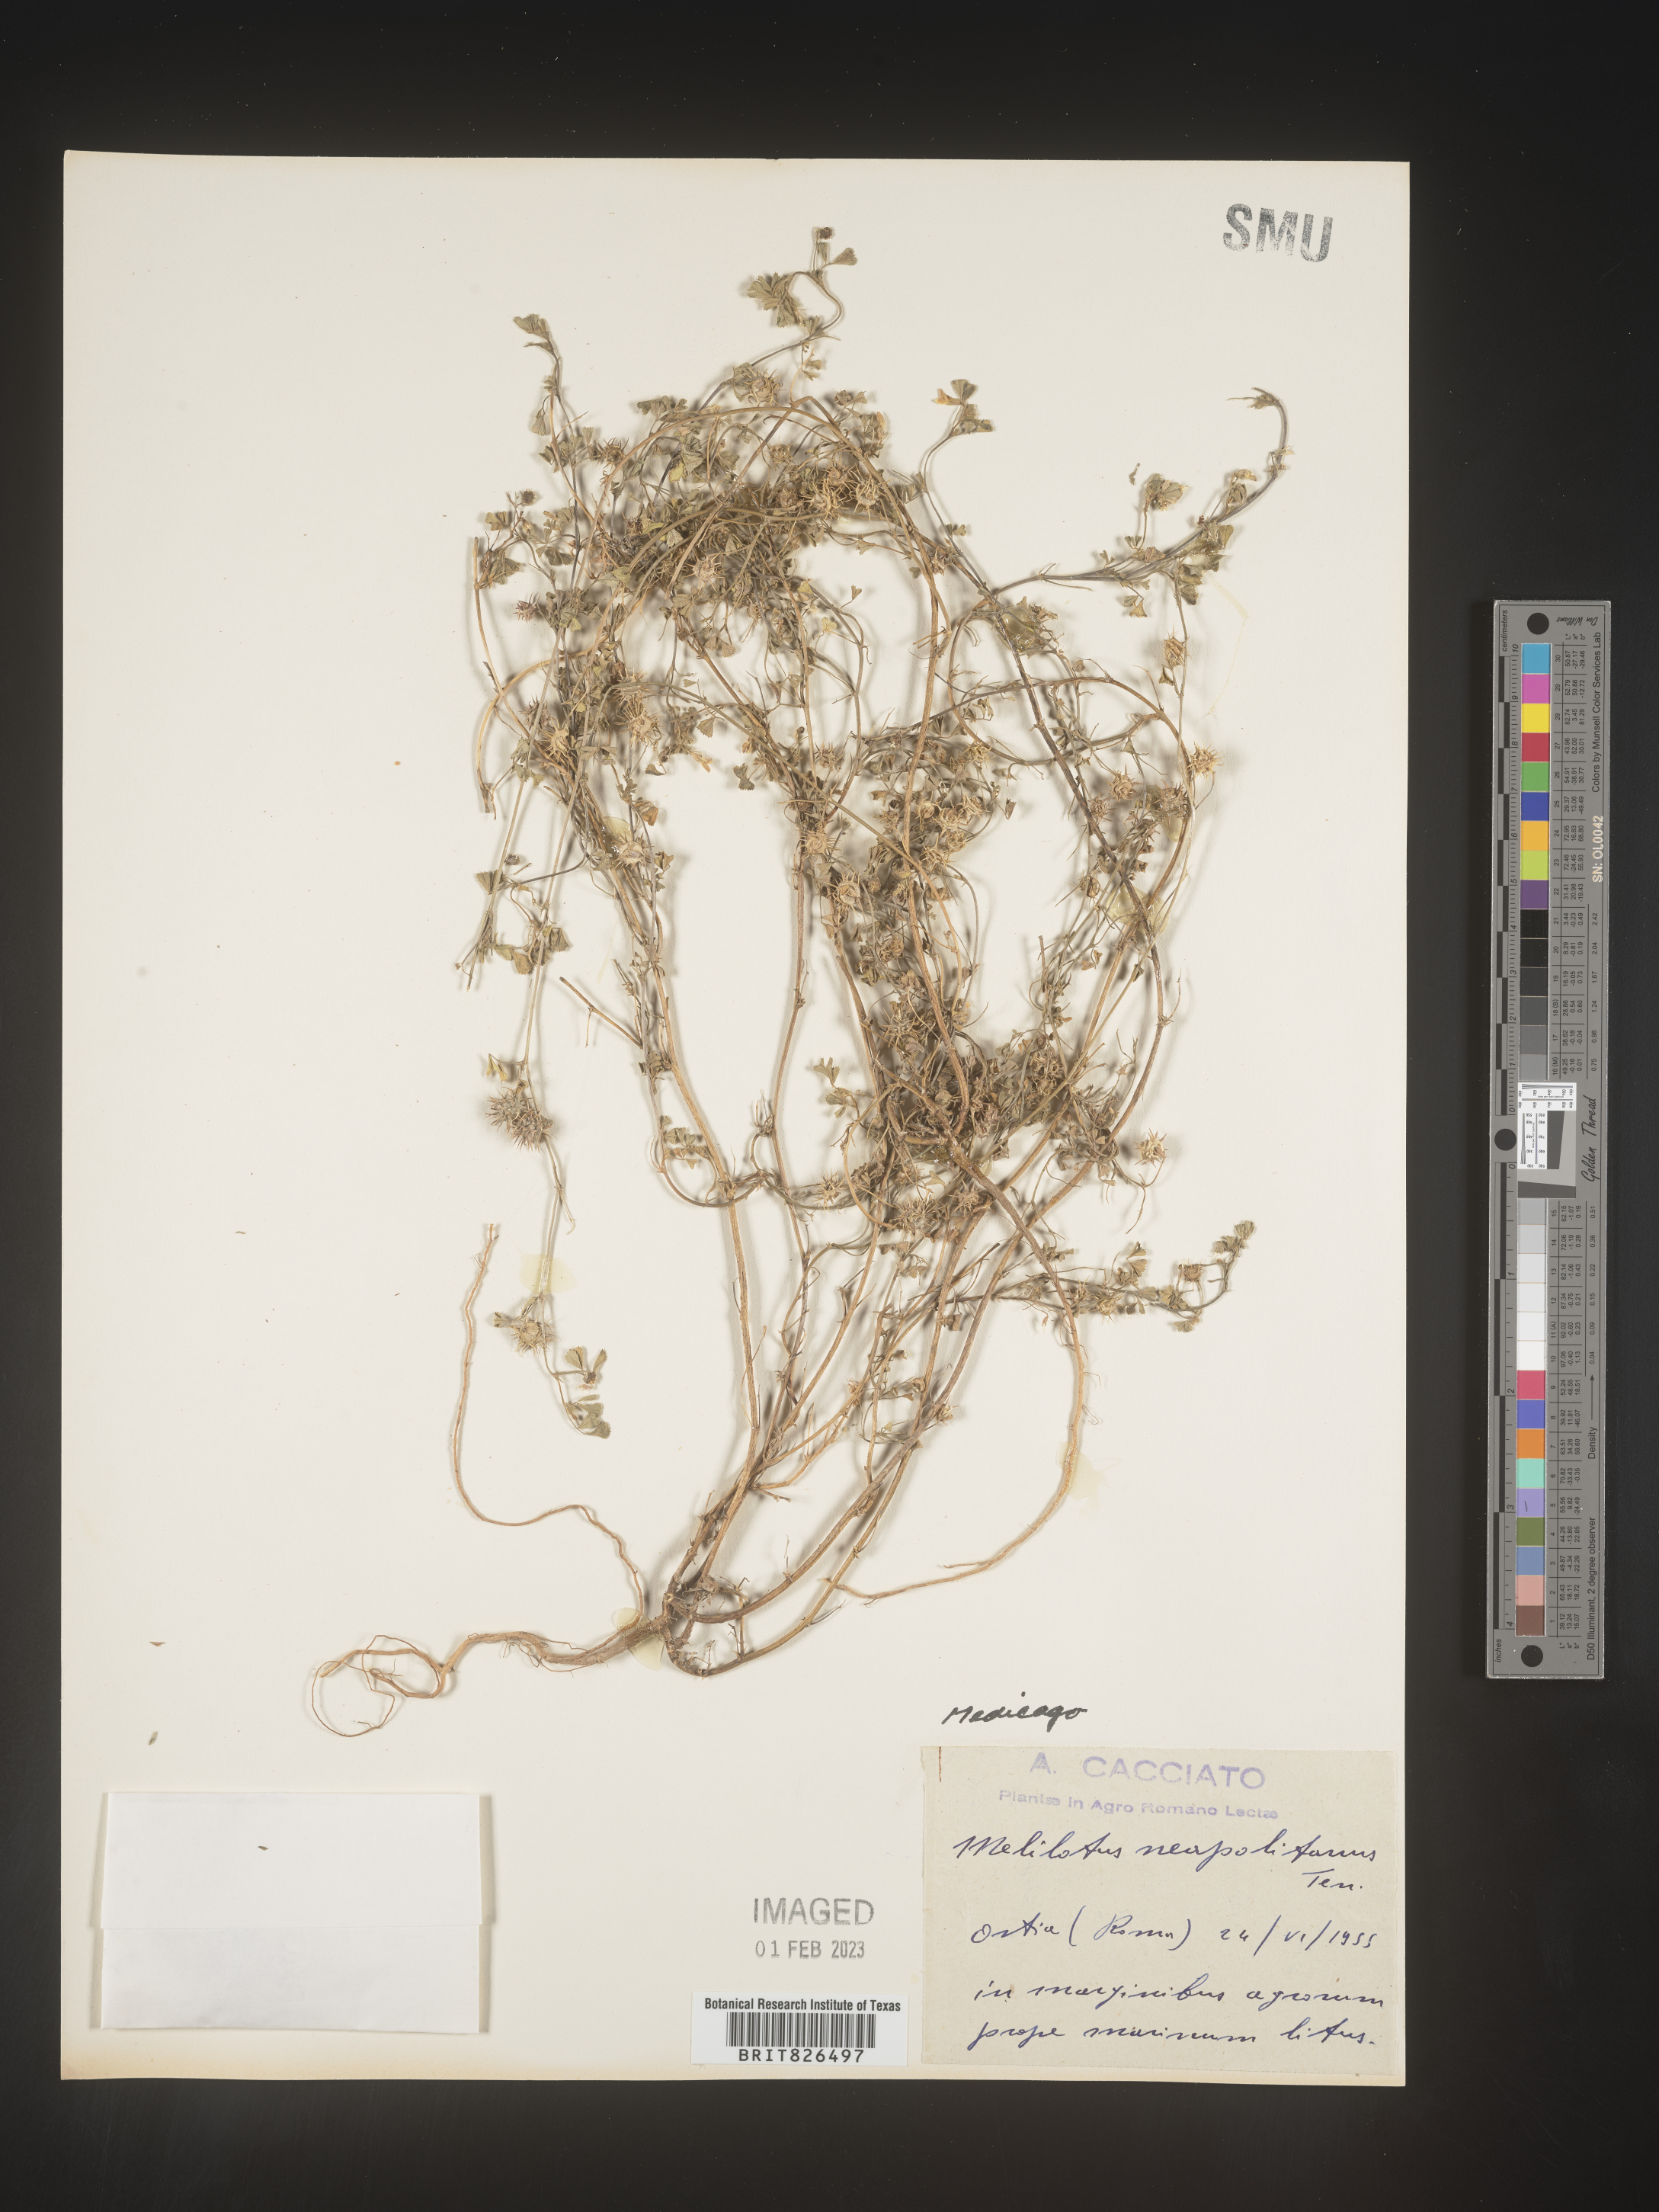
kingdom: Plantae
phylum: Tracheophyta
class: Magnoliopsida
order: Fabales
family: Fabaceae
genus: Medicago
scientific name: Medicago
